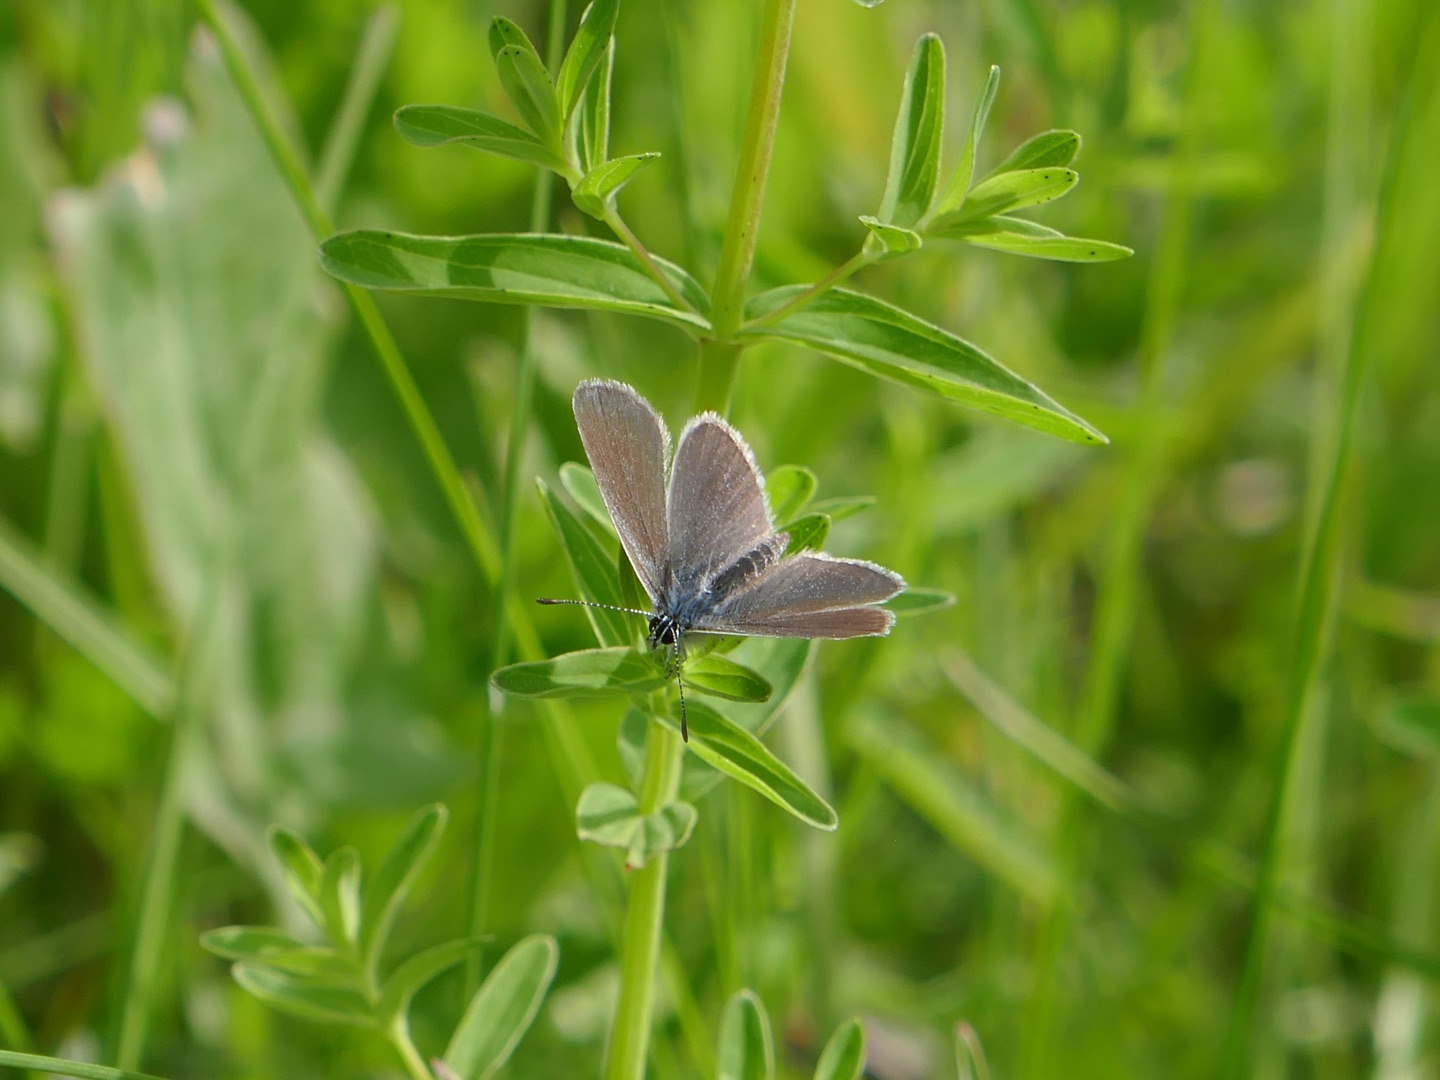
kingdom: Animalia
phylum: Arthropoda
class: Insecta
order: Lepidoptera
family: Lycaenidae
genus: Cupido
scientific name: Cupido minimus
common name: Dværgblåfugl
